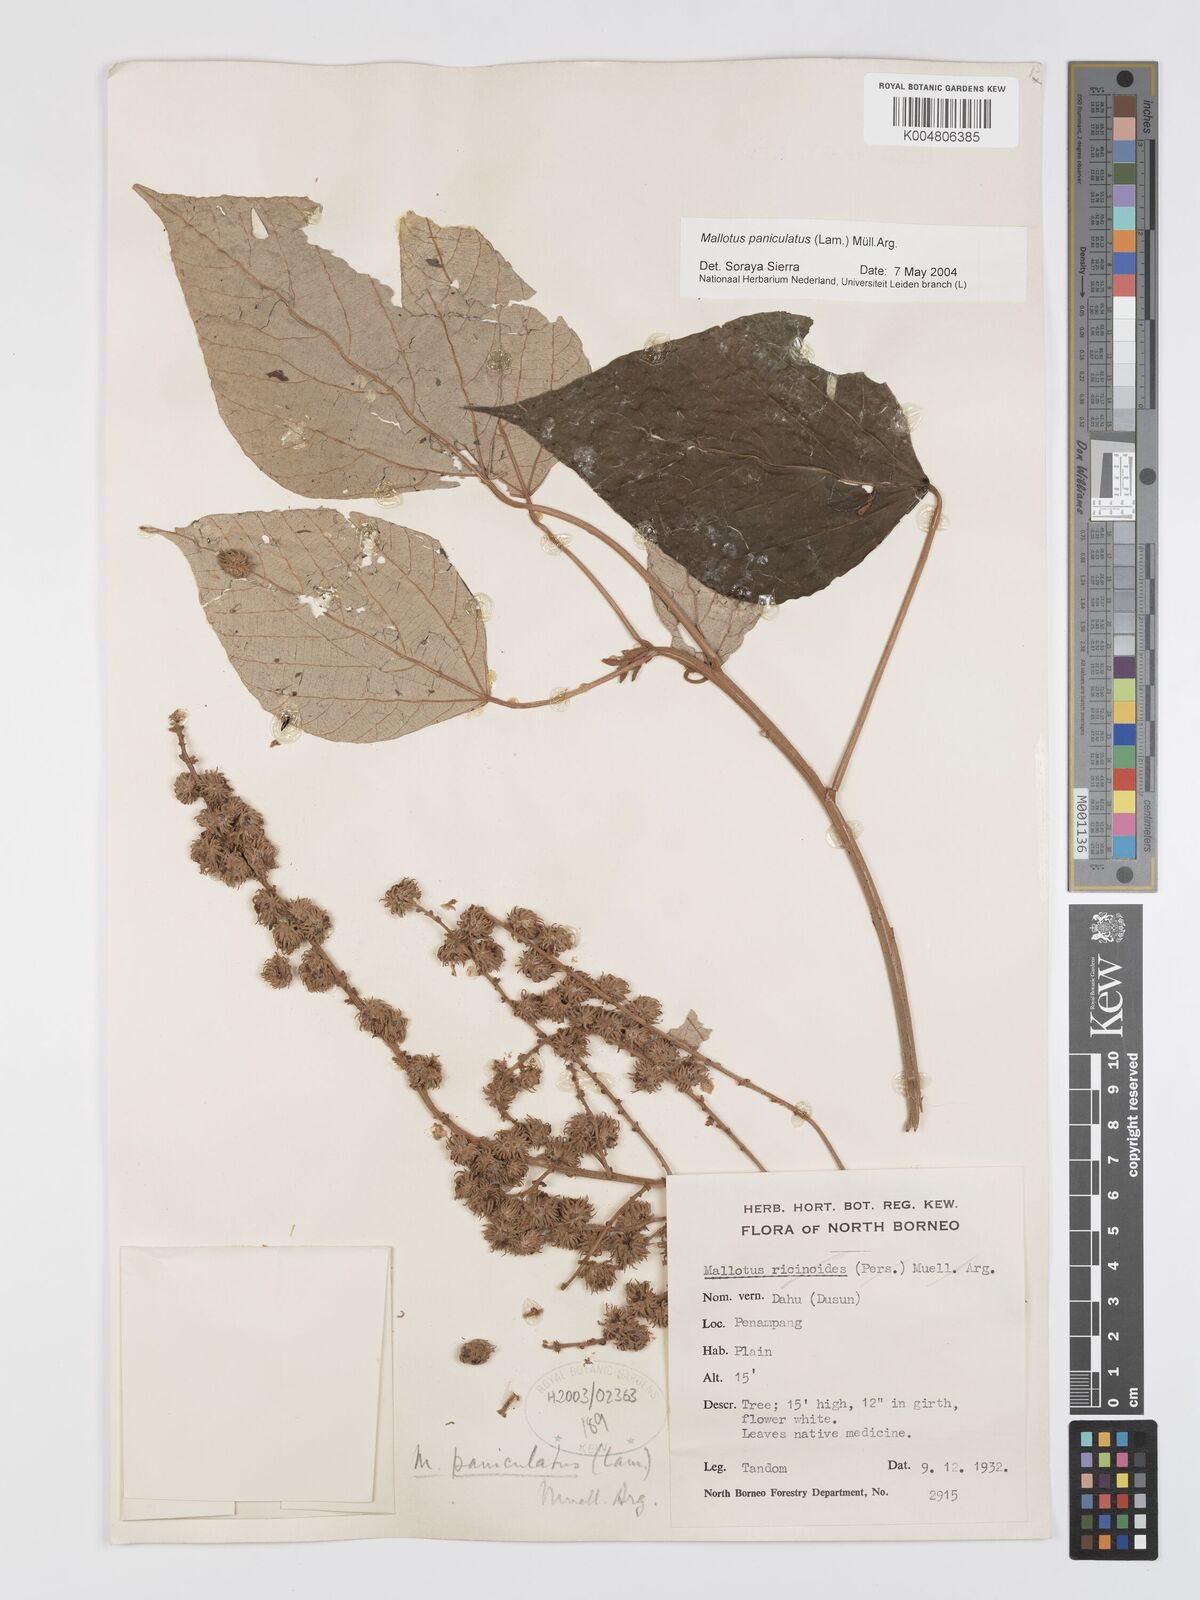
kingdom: Plantae
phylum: Tracheophyta
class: Magnoliopsida
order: Malpighiales
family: Euphorbiaceae
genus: Mallotus
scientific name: Mallotus paniculatus
